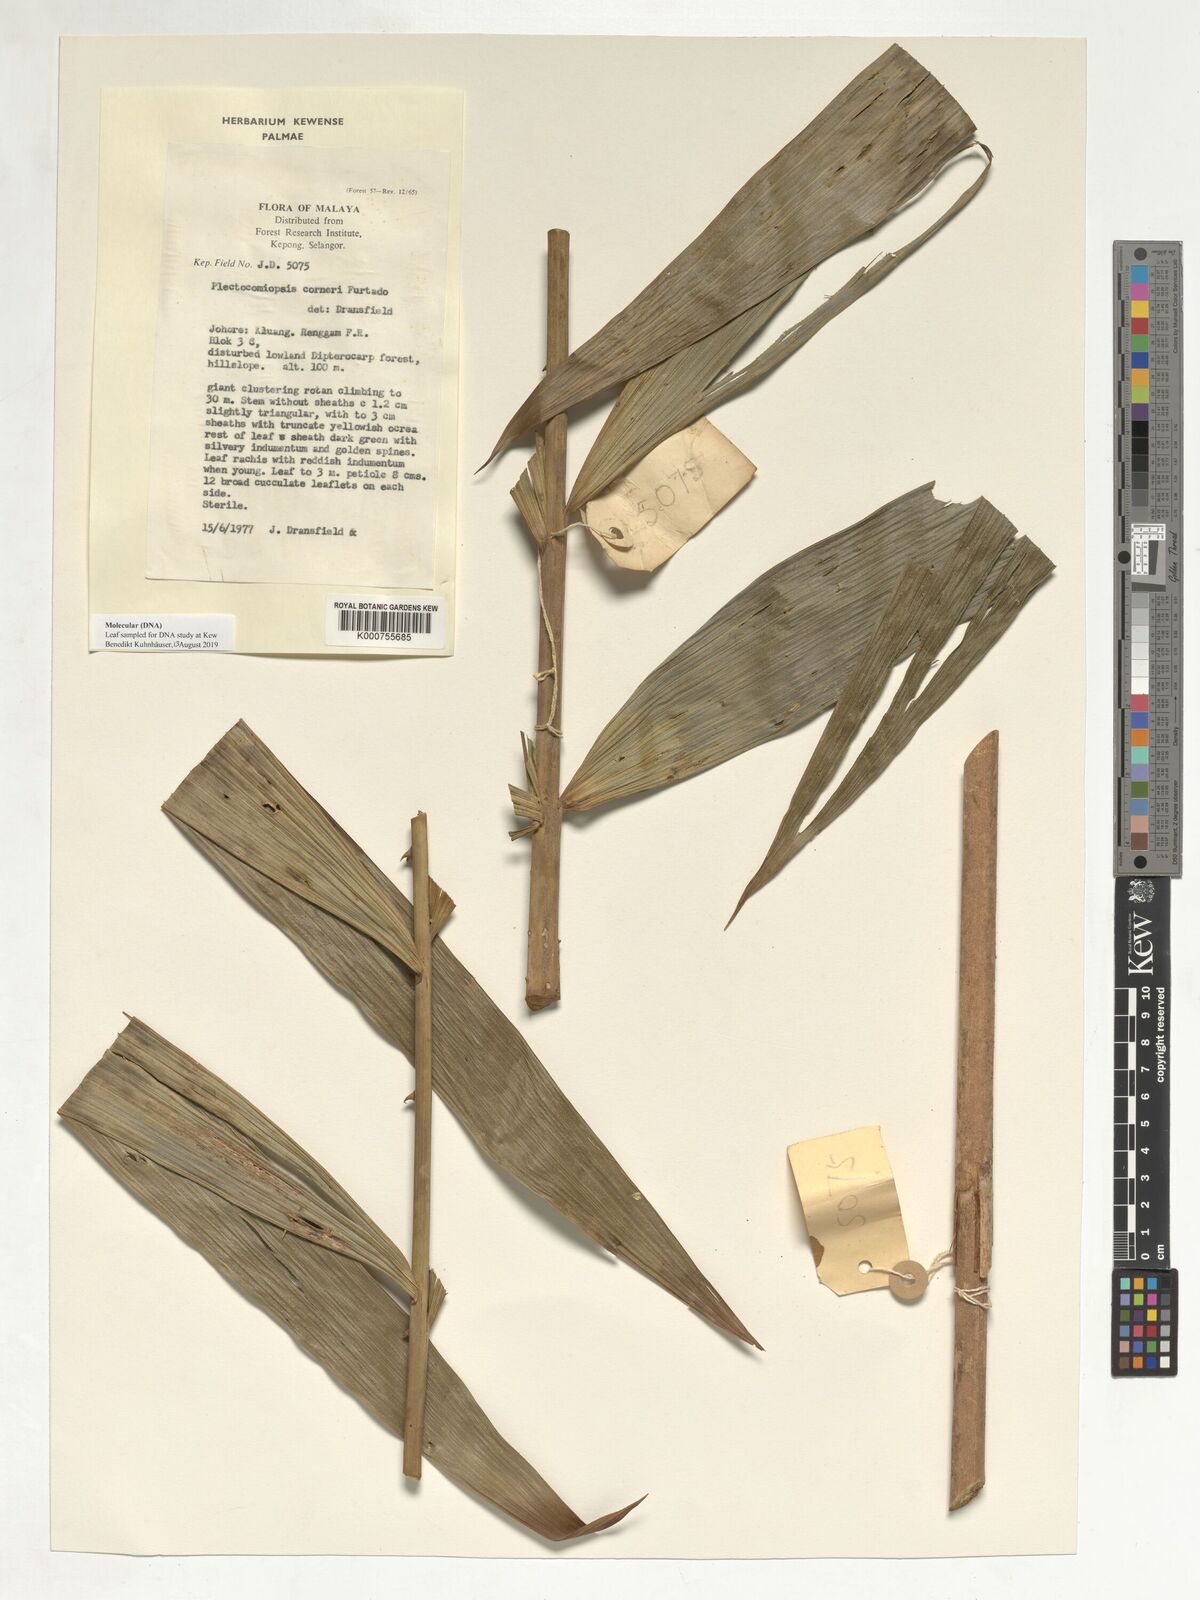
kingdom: Plantae
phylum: Tracheophyta
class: Liliopsida
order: Arecales
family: Arecaceae
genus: Plectocomiopsis
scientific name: Plectocomiopsis corneri
